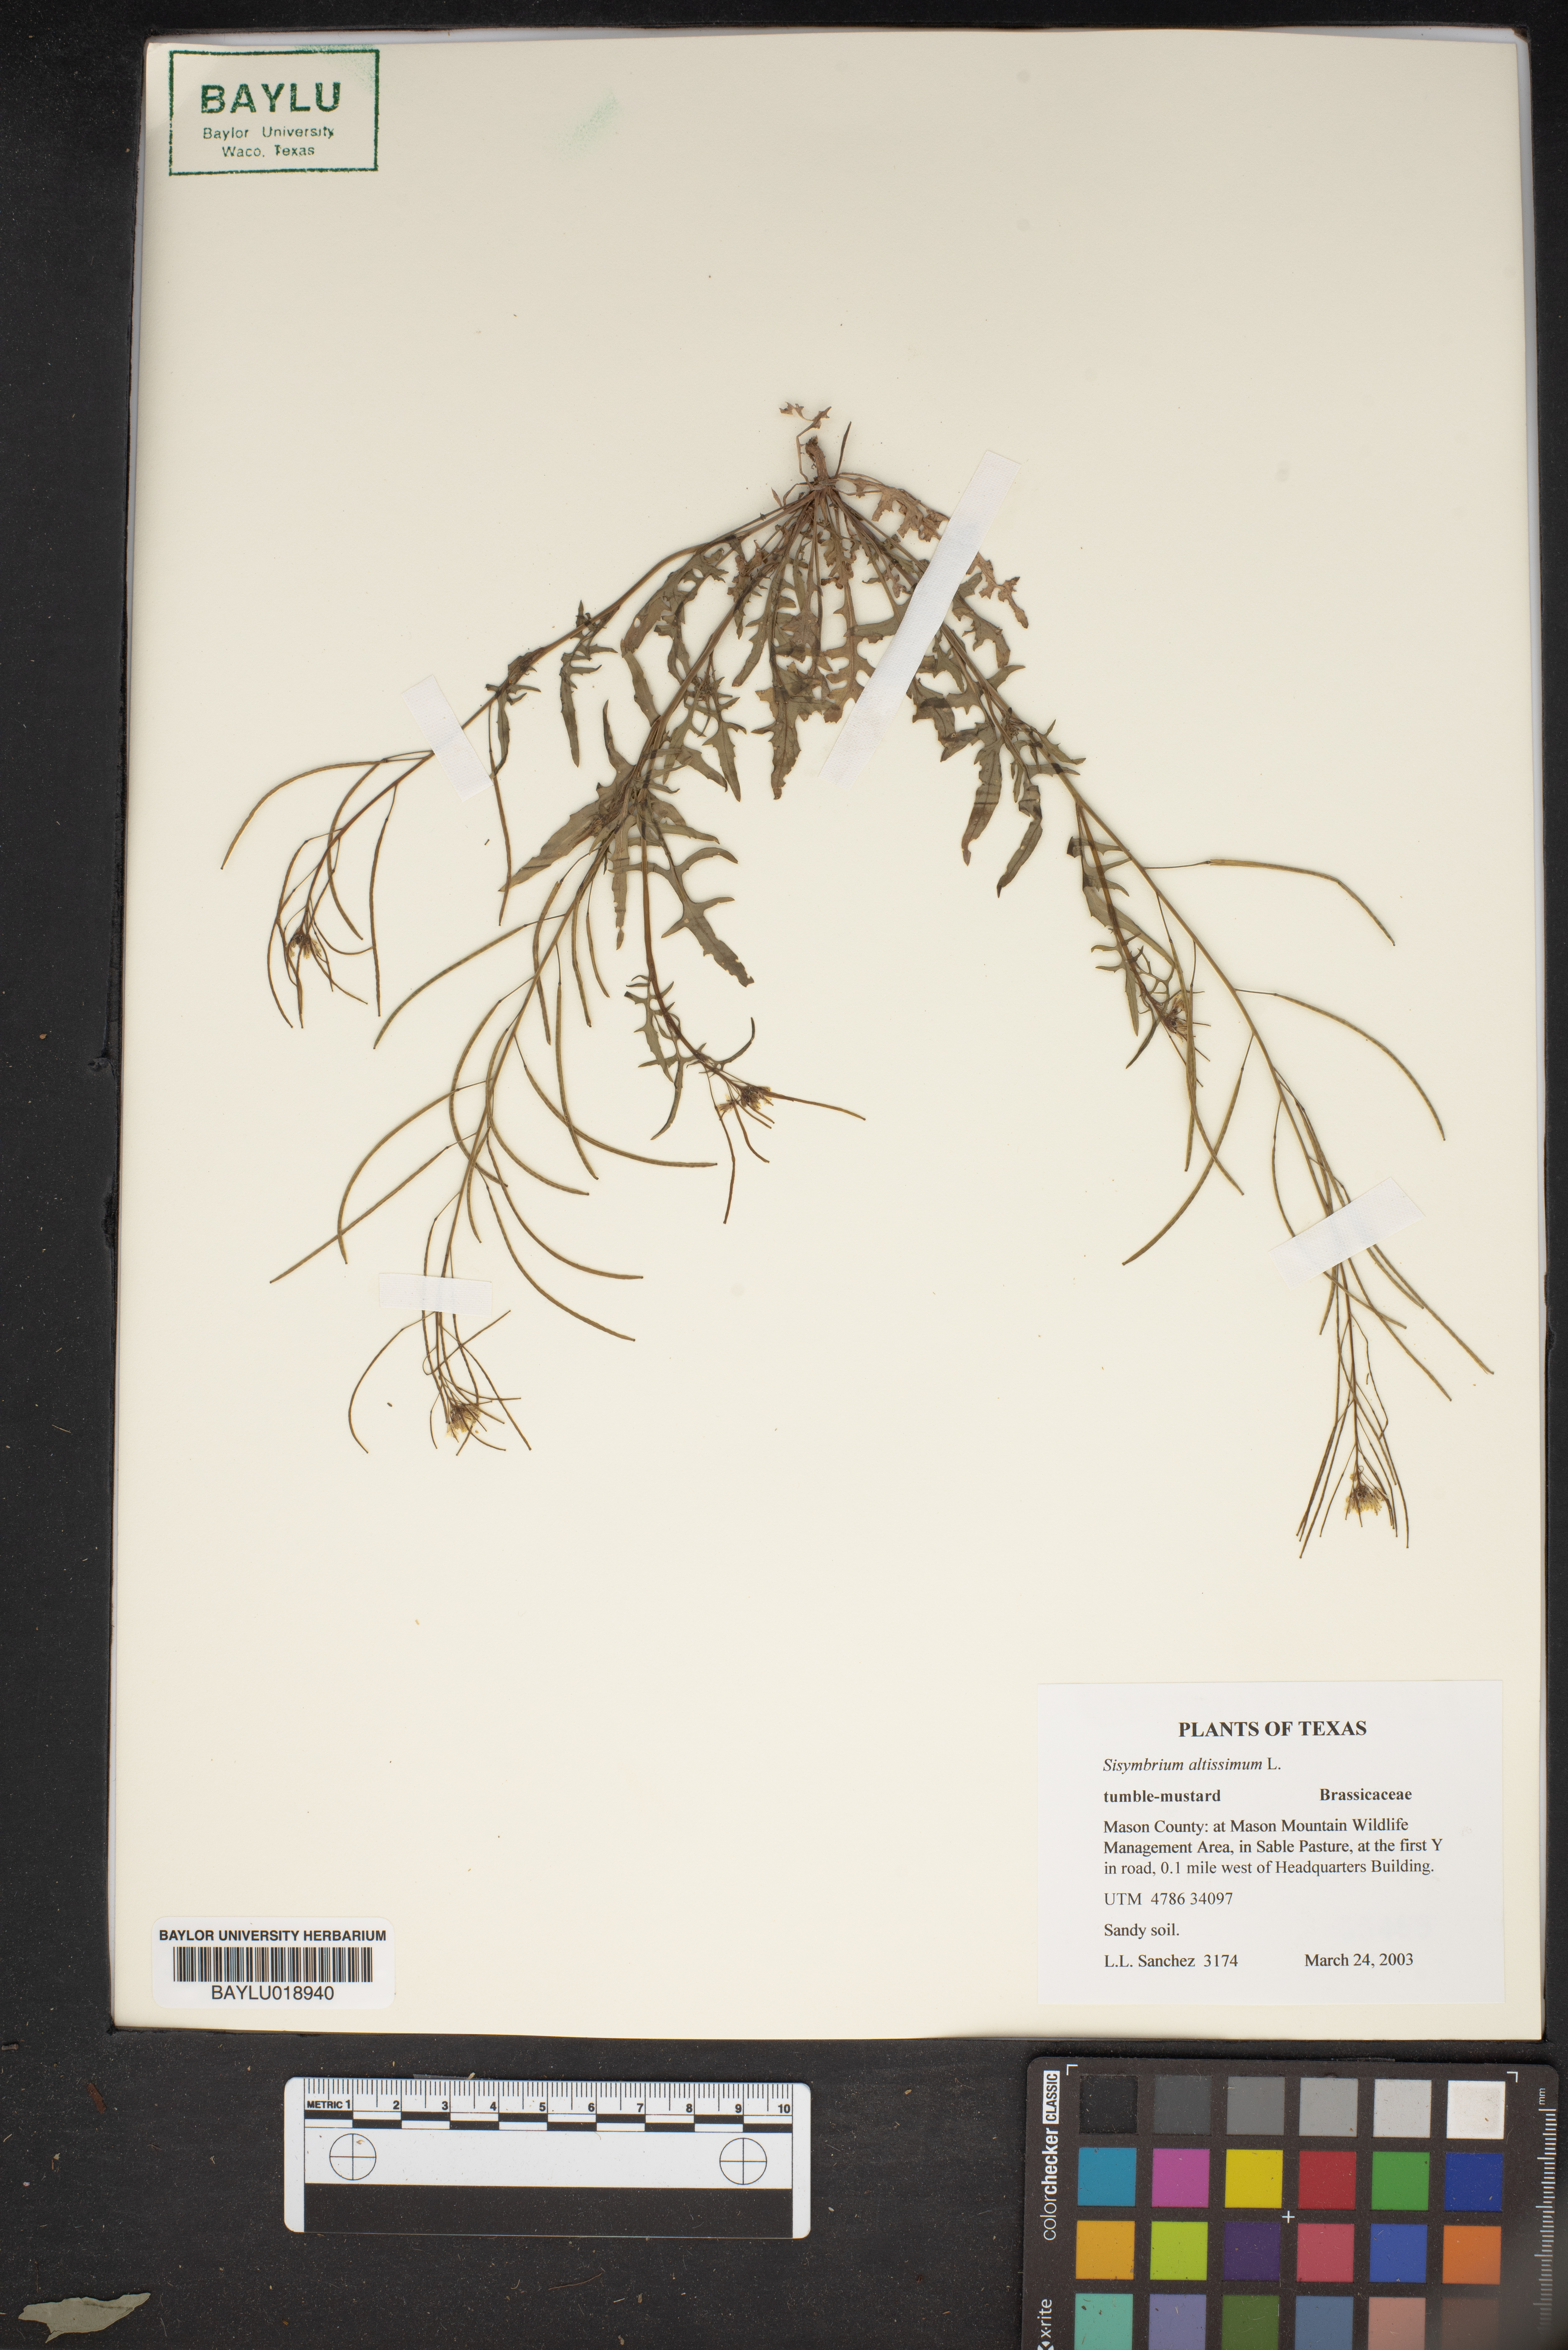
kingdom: Plantae
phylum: Tracheophyta
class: Magnoliopsida
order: Brassicales
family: Brassicaceae
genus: Sisymbrium
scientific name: Sisymbrium altissimum
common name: Tall rocket
